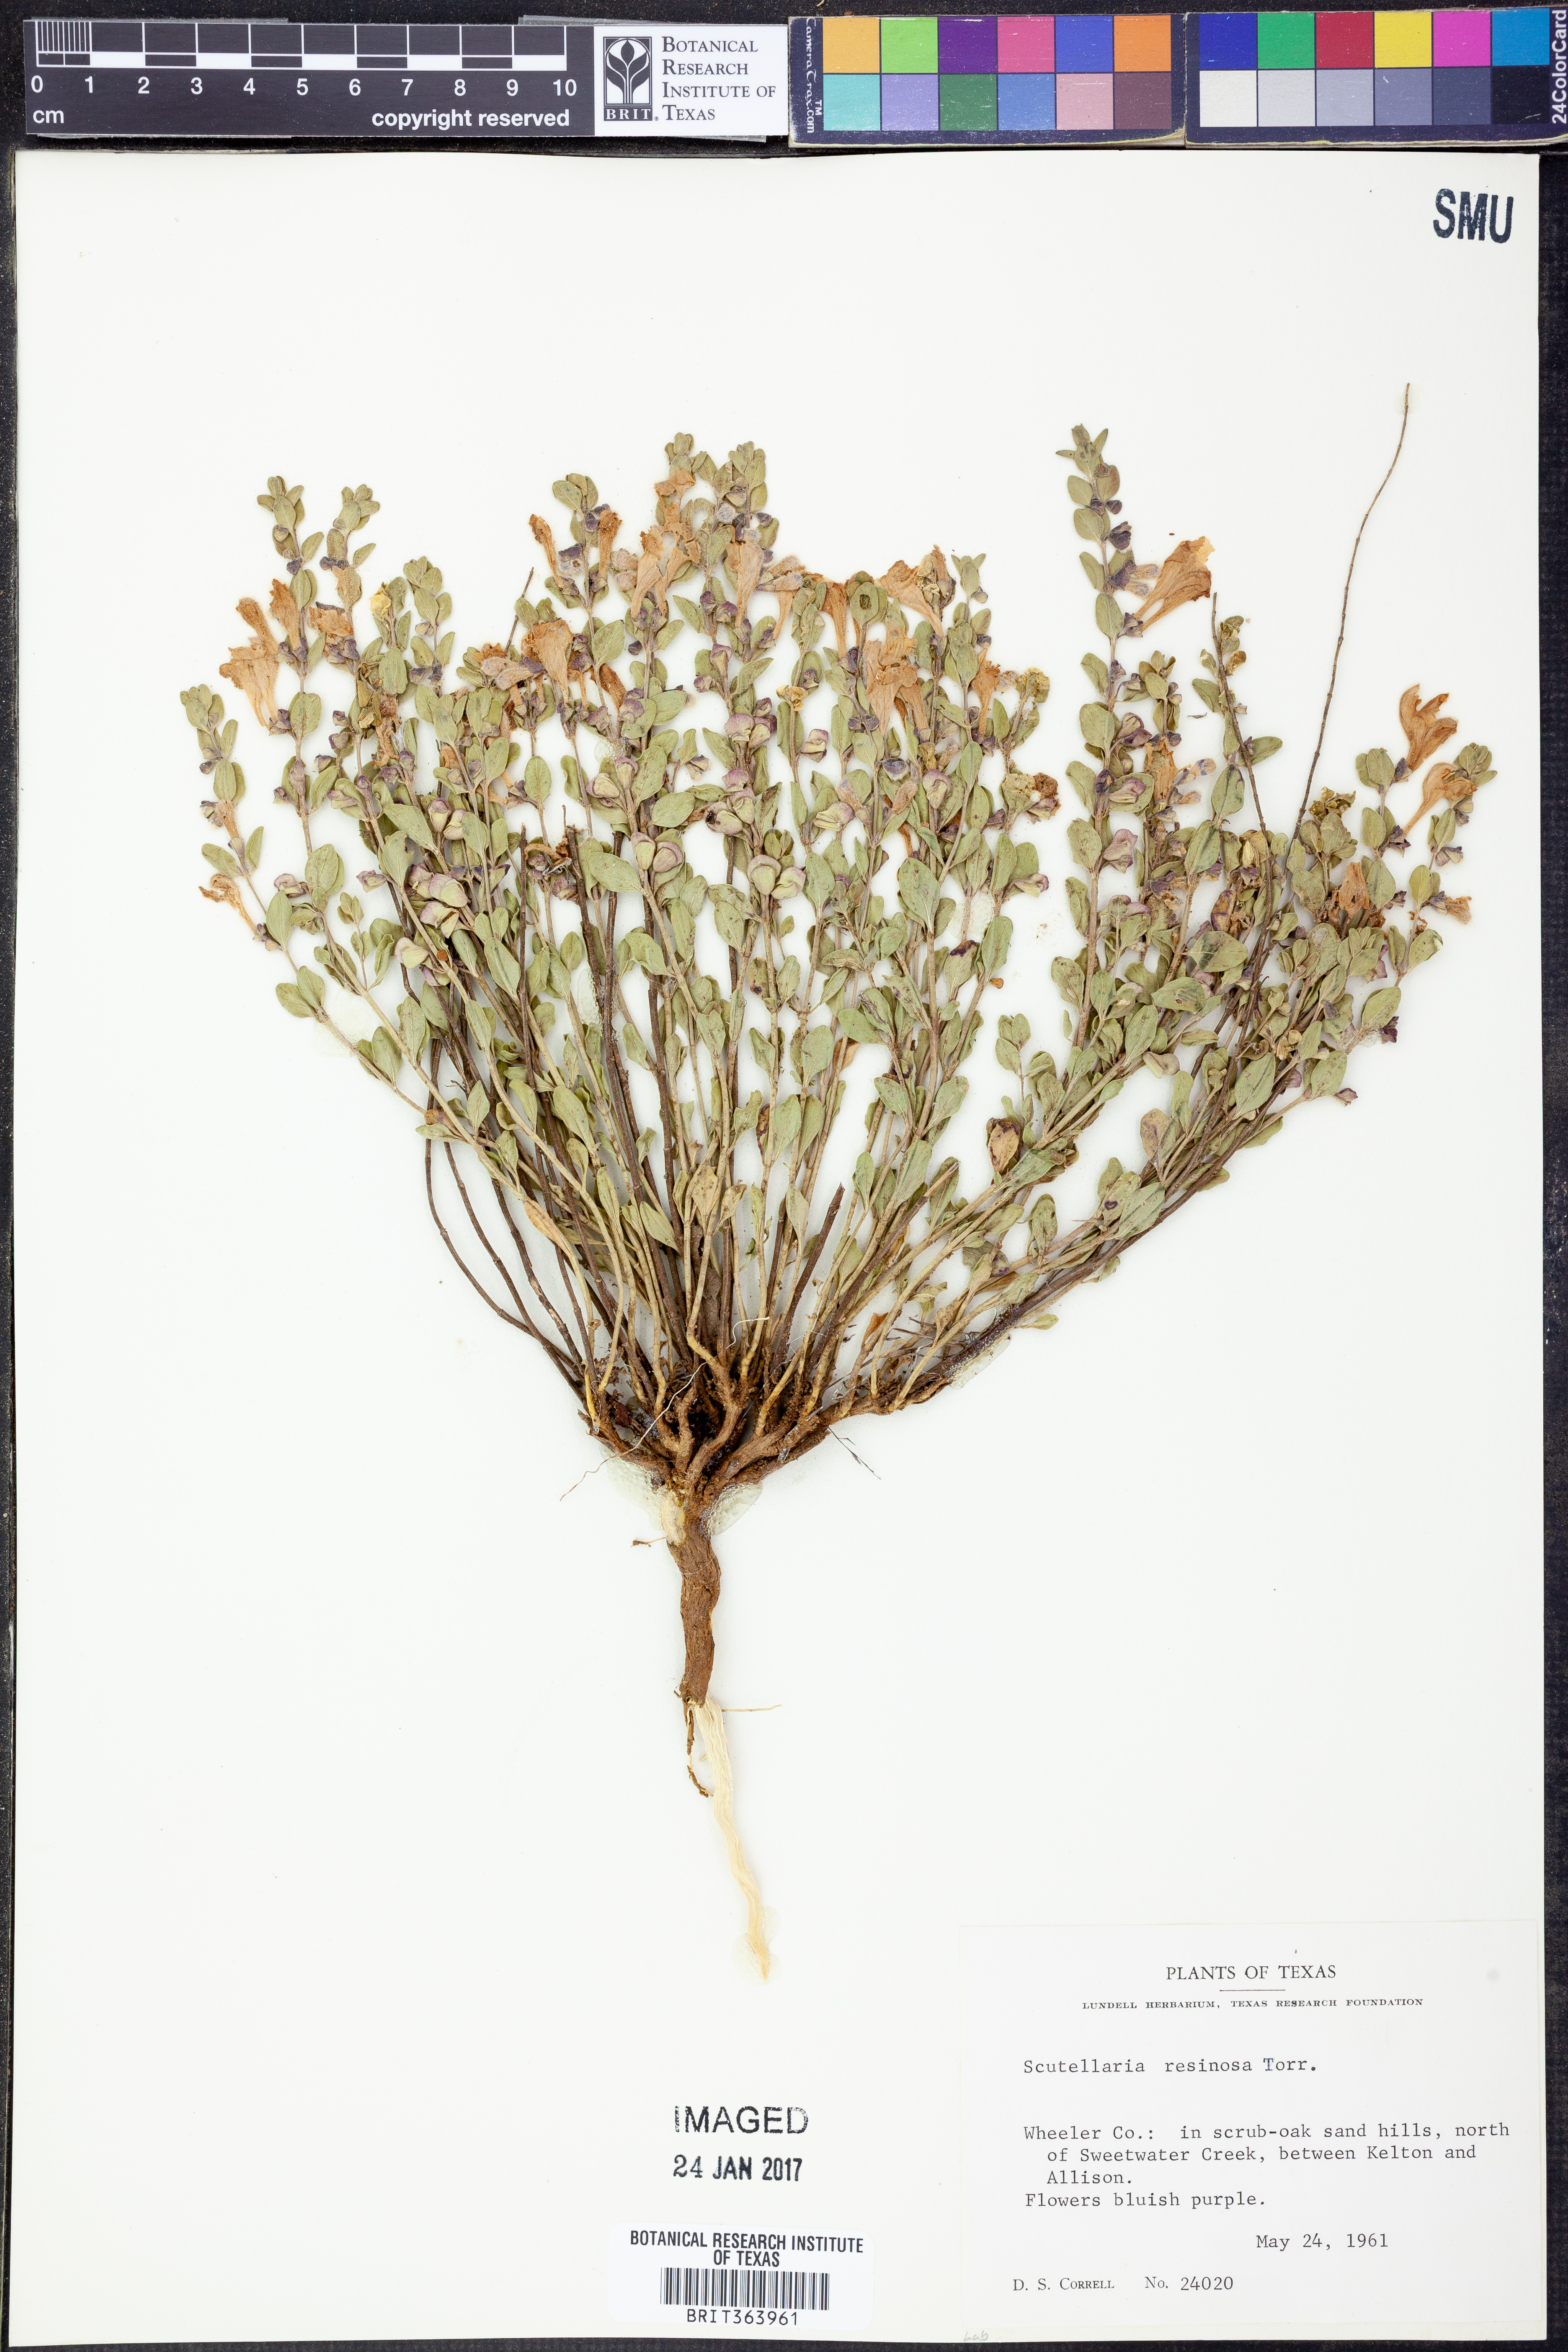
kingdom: Plantae
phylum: Tracheophyta
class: Magnoliopsida
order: Lamiales
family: Lamiaceae
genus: Scutellaria
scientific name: Scutellaria resinosa
